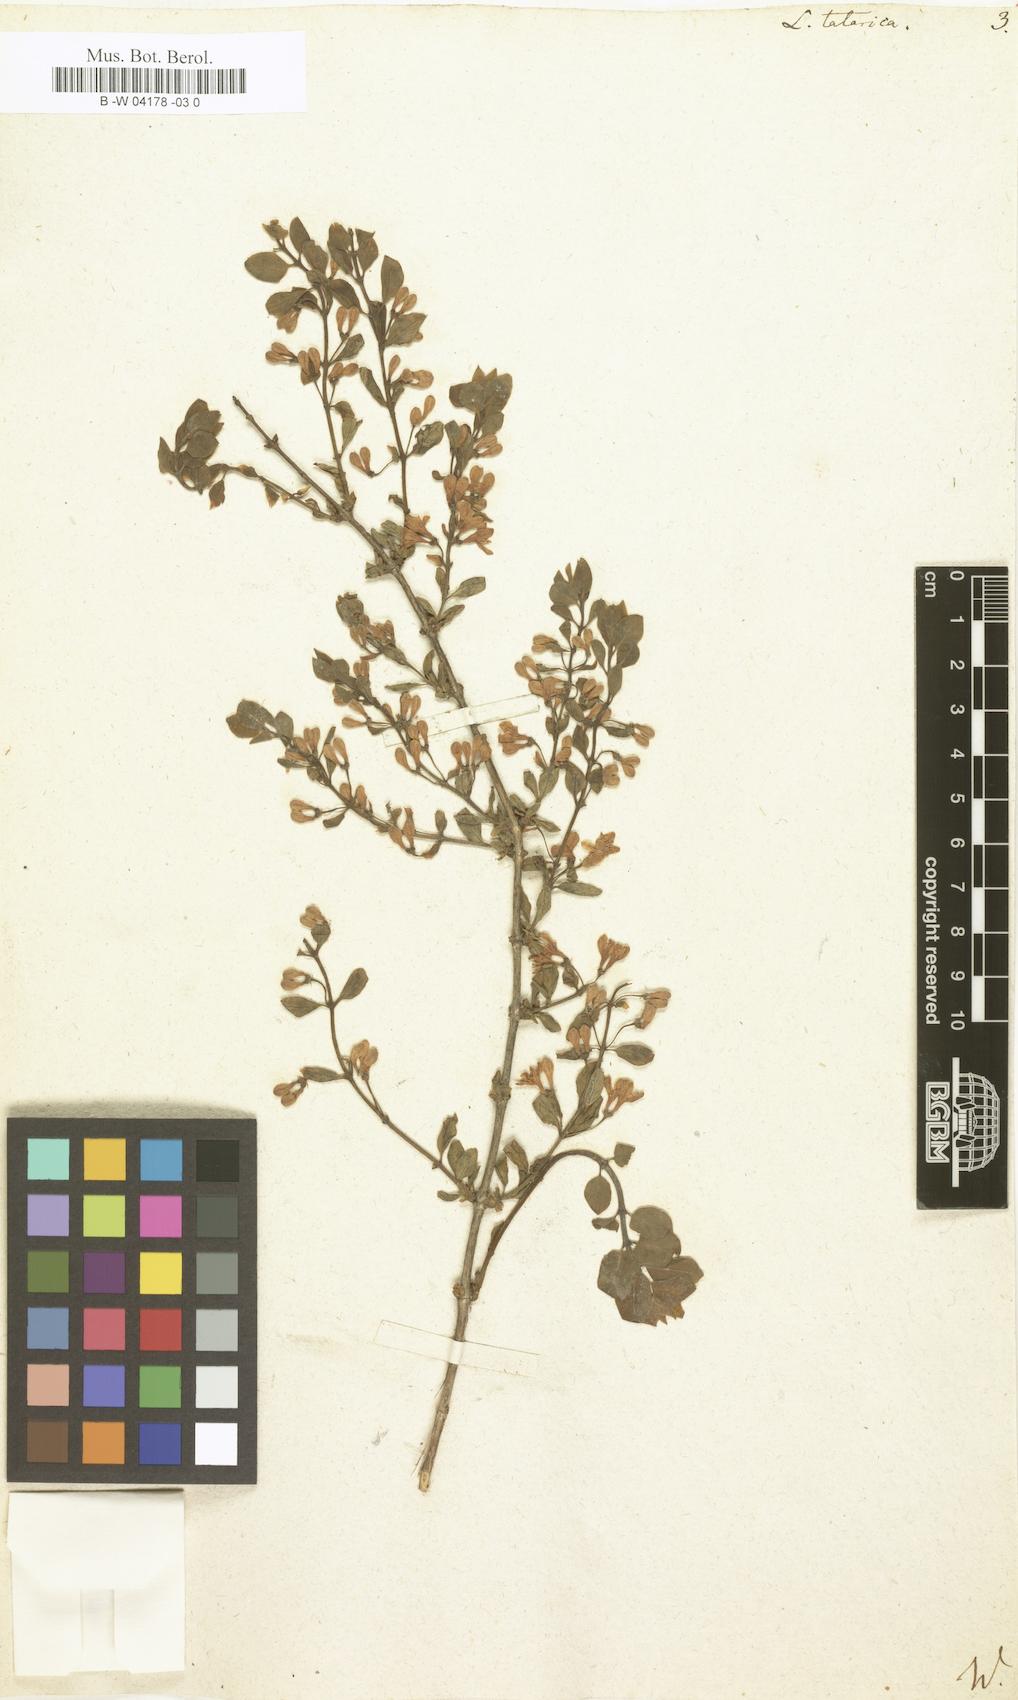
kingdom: Plantae
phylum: Tracheophyta
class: Magnoliopsida
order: Dipsacales
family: Caprifoliaceae
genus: Lonicera
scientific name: Lonicera tatarica
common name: Tatarian honeysuckle
